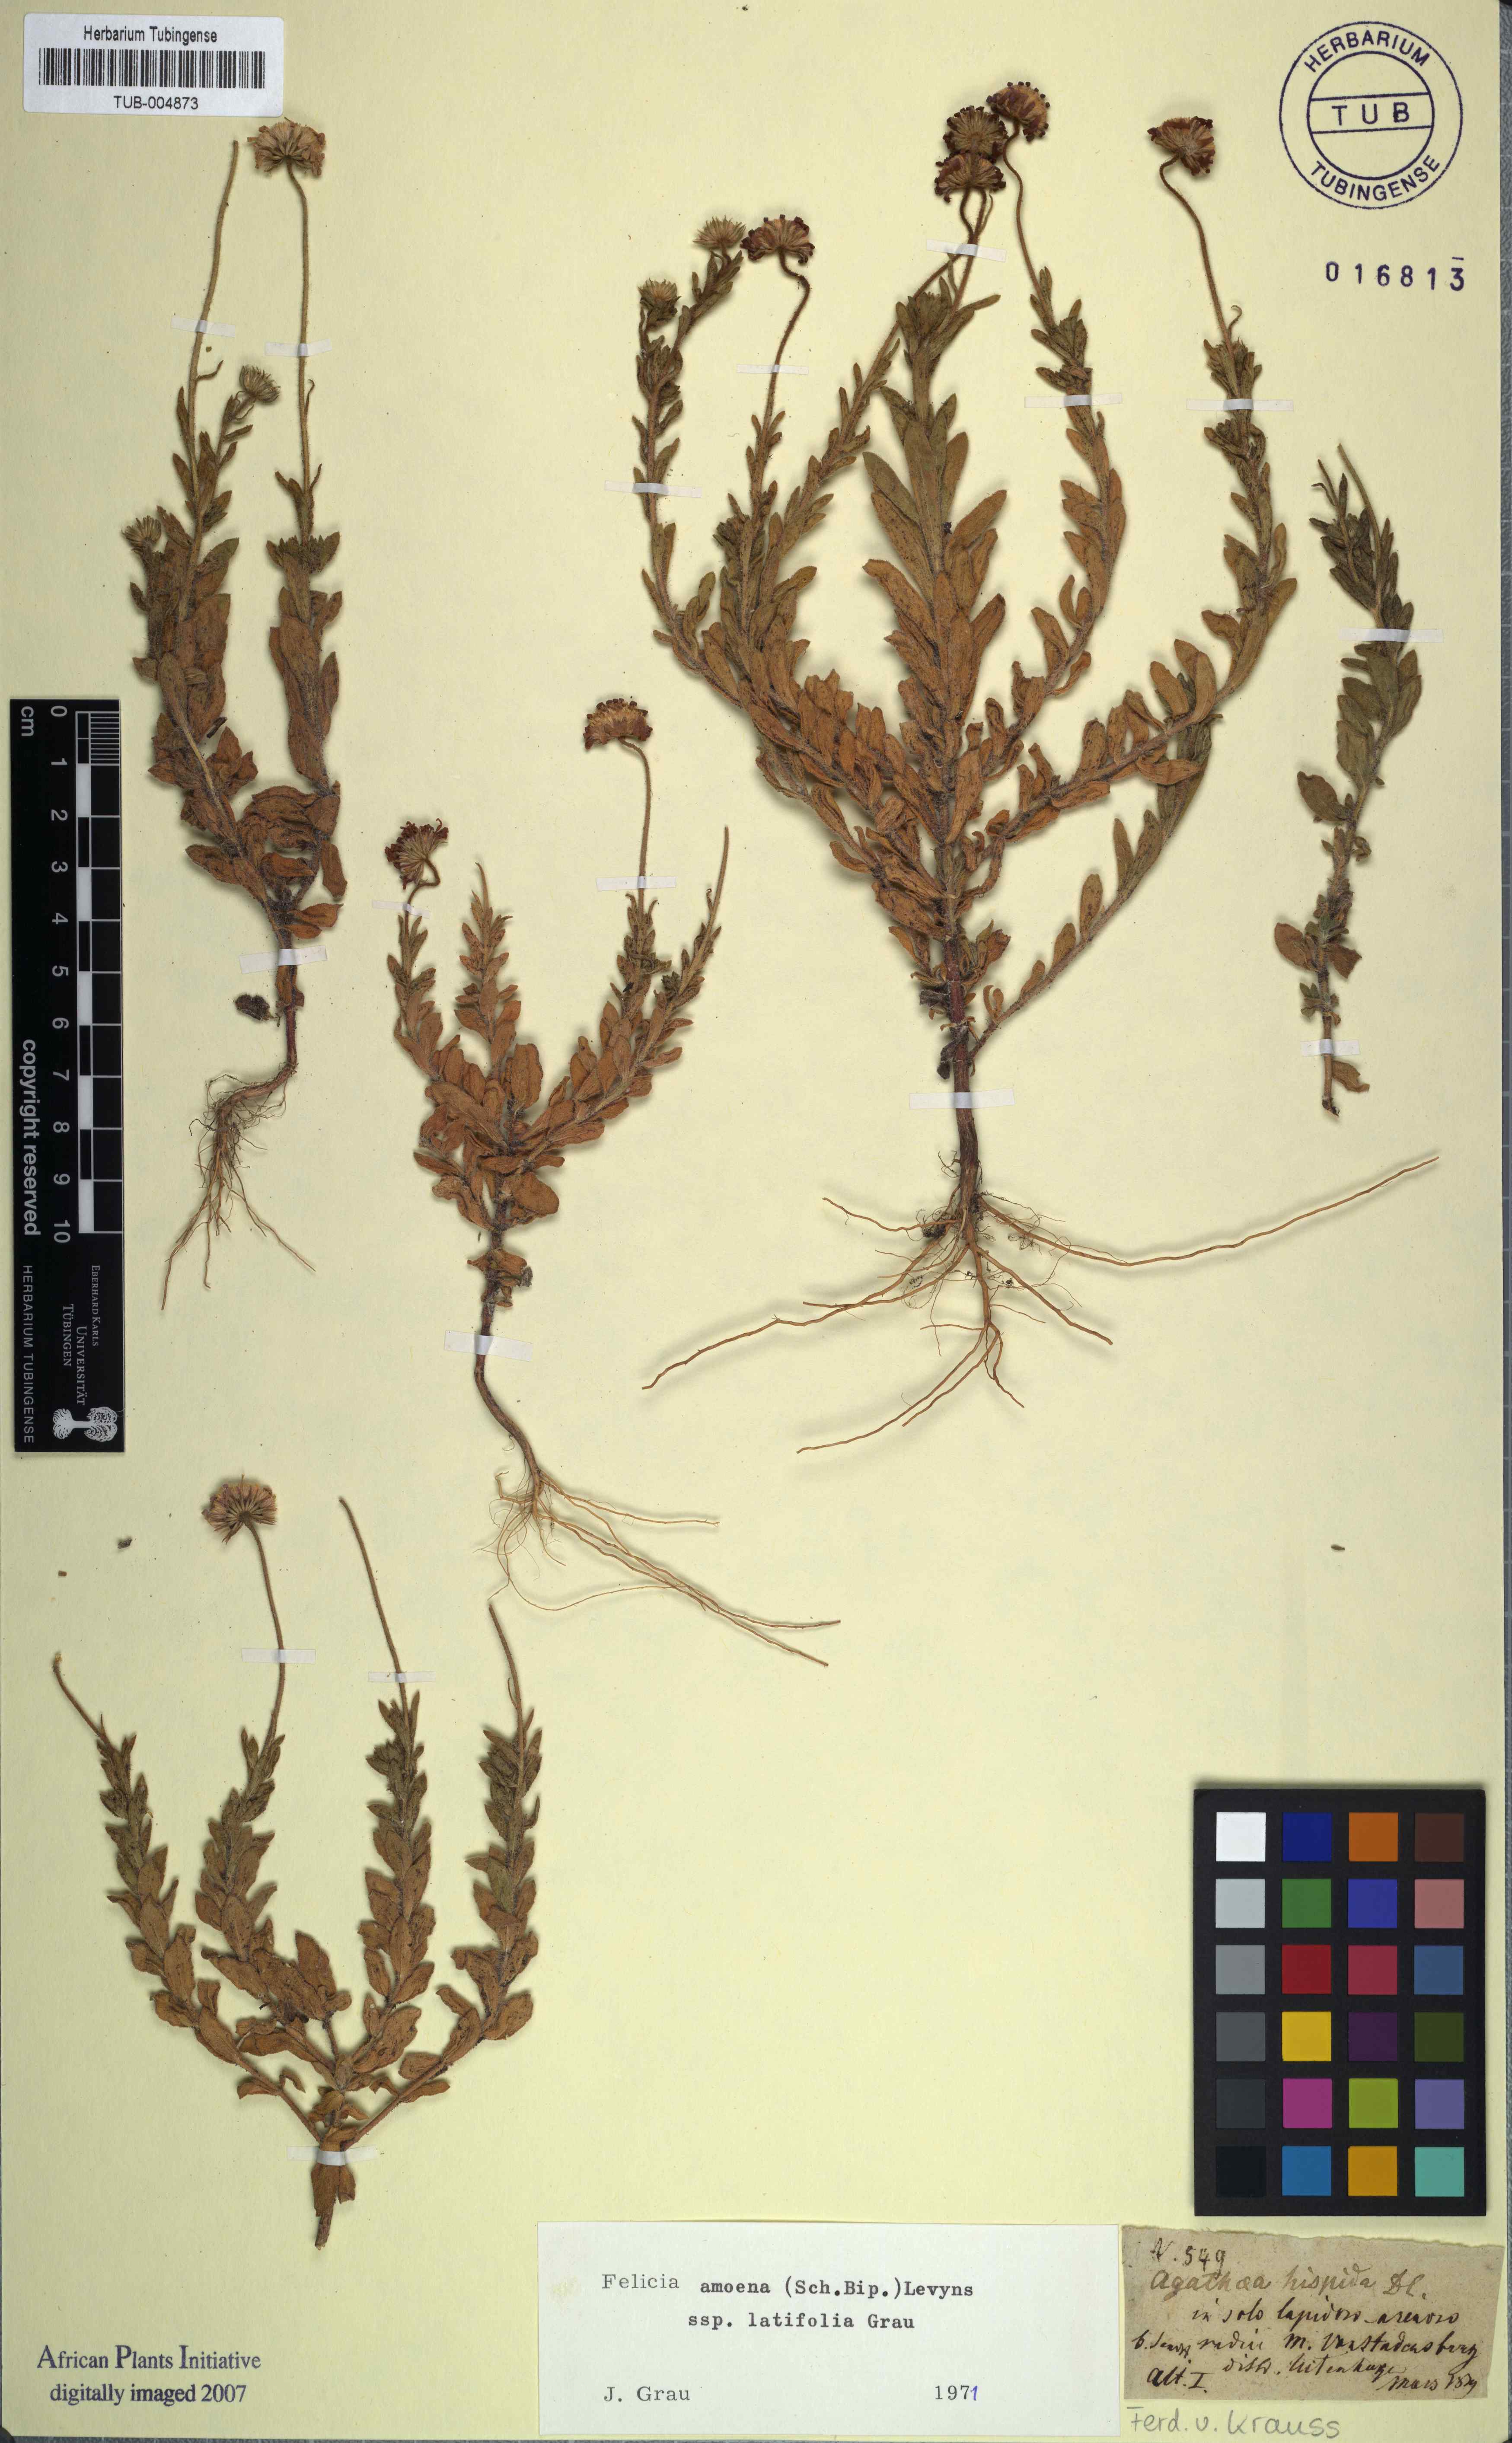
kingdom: Plantae
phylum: Tracheophyta
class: Magnoliopsida
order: Asterales
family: Asteraceae
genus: Felicia
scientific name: Felicia amoena
